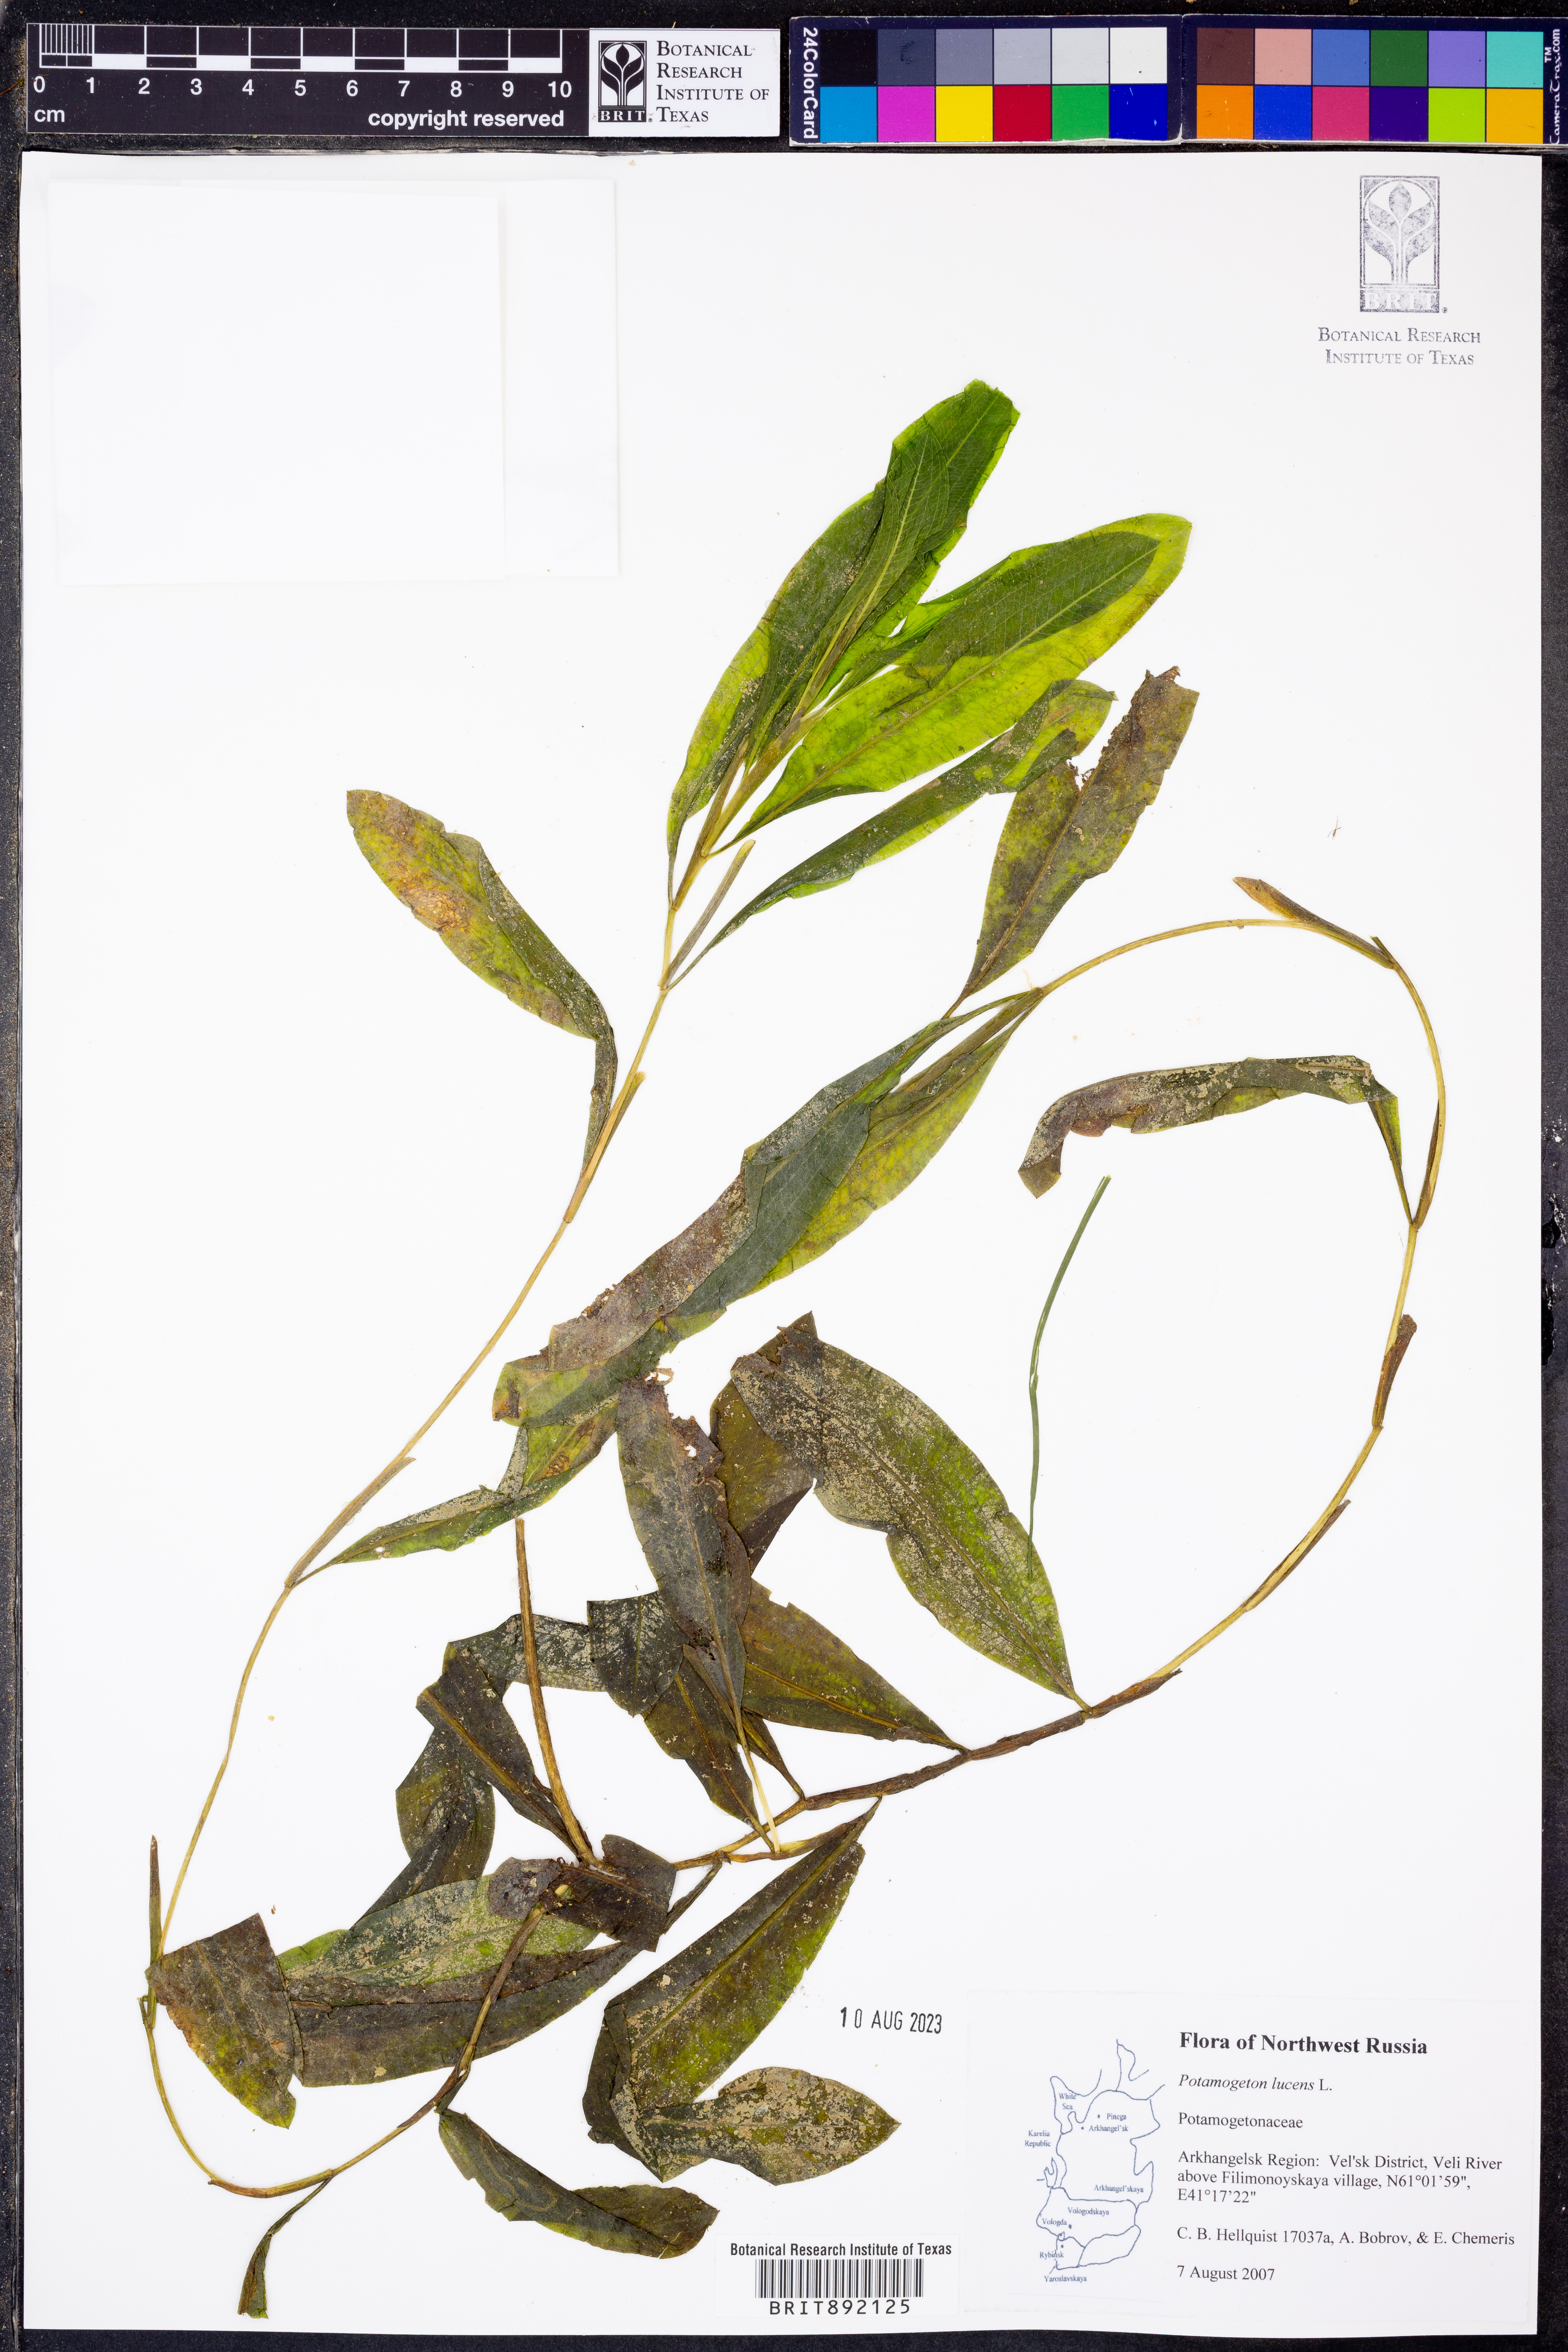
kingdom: Plantae
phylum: Tracheophyta
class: Liliopsida
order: Alismatales
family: Potamogetonaceae
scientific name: Potamogetonaceae
